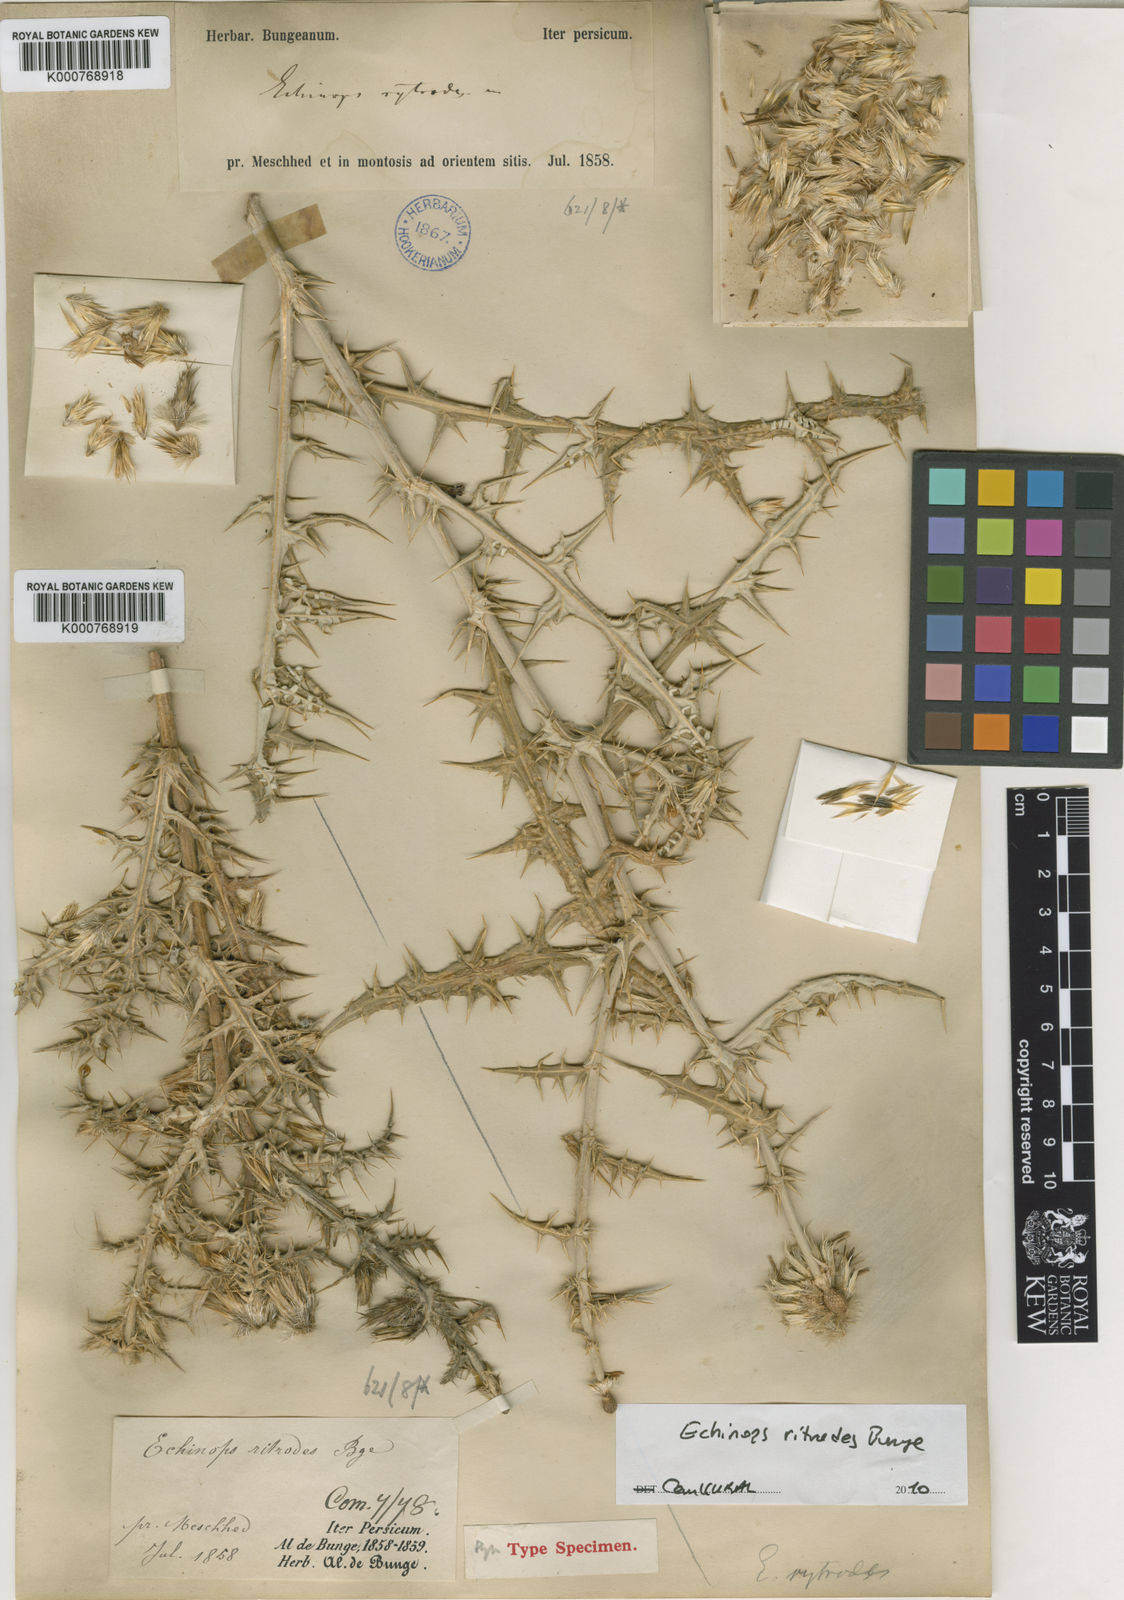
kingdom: Plantae
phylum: Tracheophyta
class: Magnoliopsida
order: Asterales
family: Asteraceae
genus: Echinops
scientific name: Echinops
